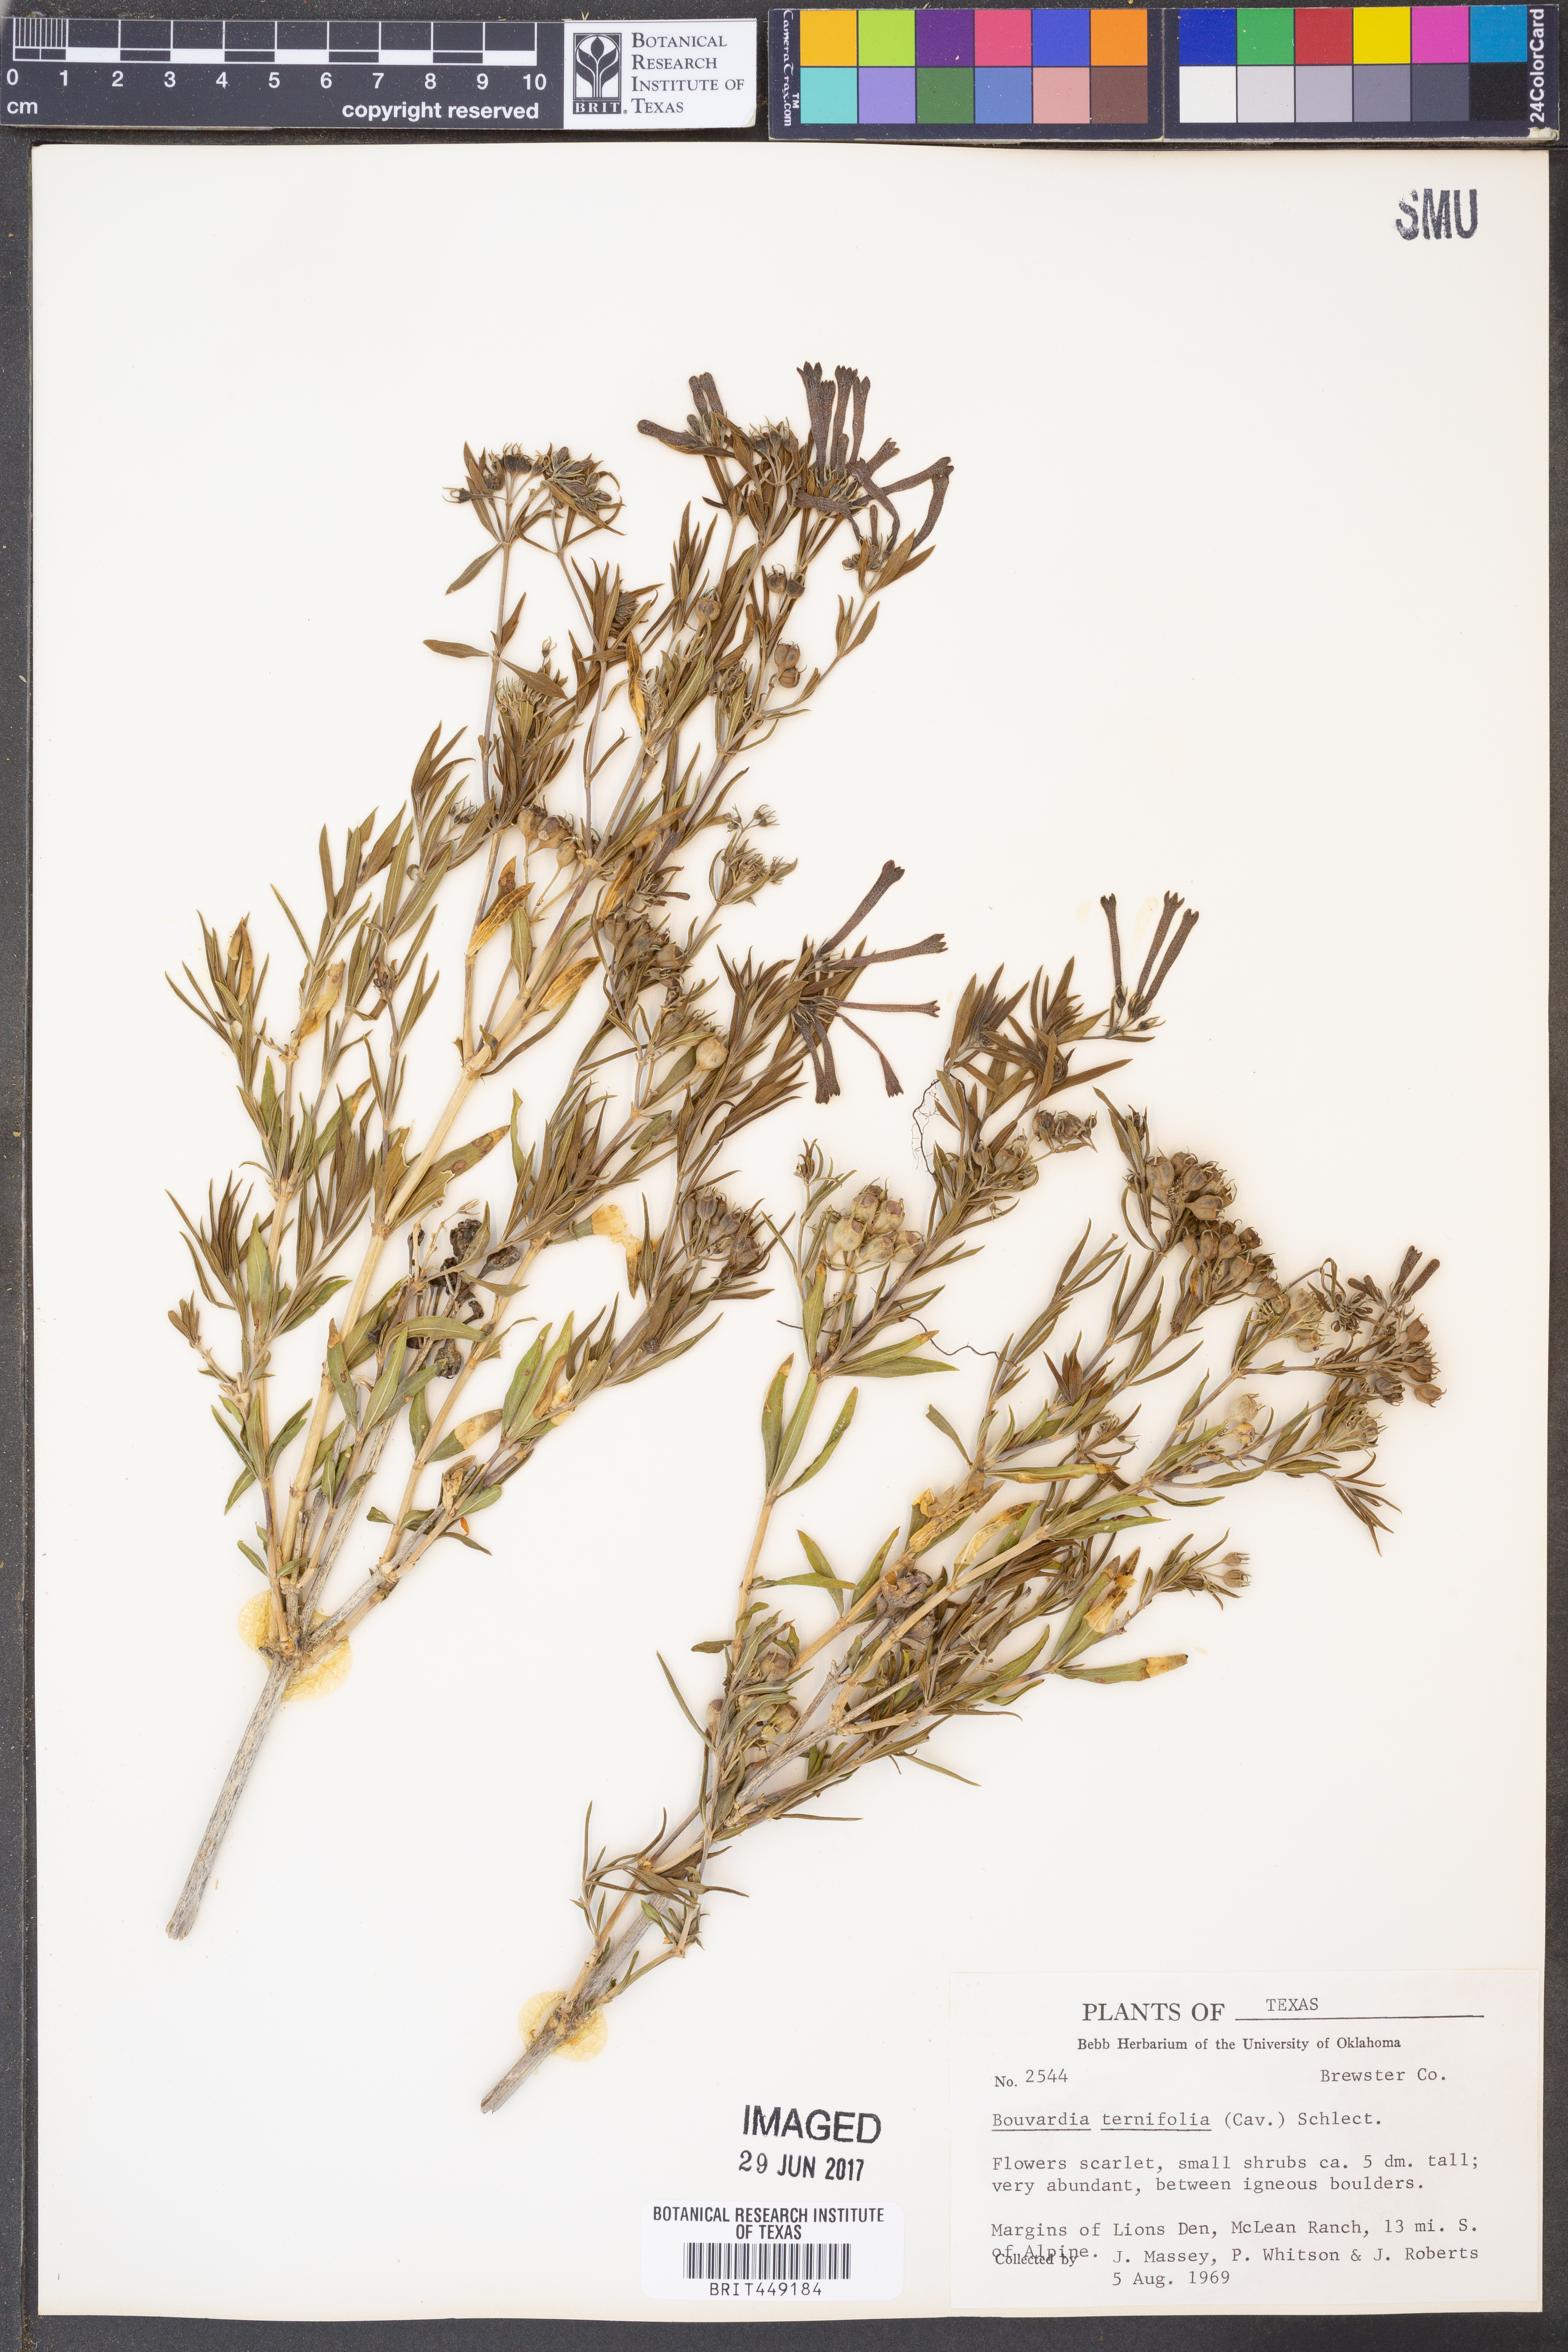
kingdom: Plantae
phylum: Tracheophyta
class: Magnoliopsida
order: Gentianales
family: Rubiaceae
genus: Bouvardia
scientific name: Bouvardia ternifolia
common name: Scarlet bouvardia
